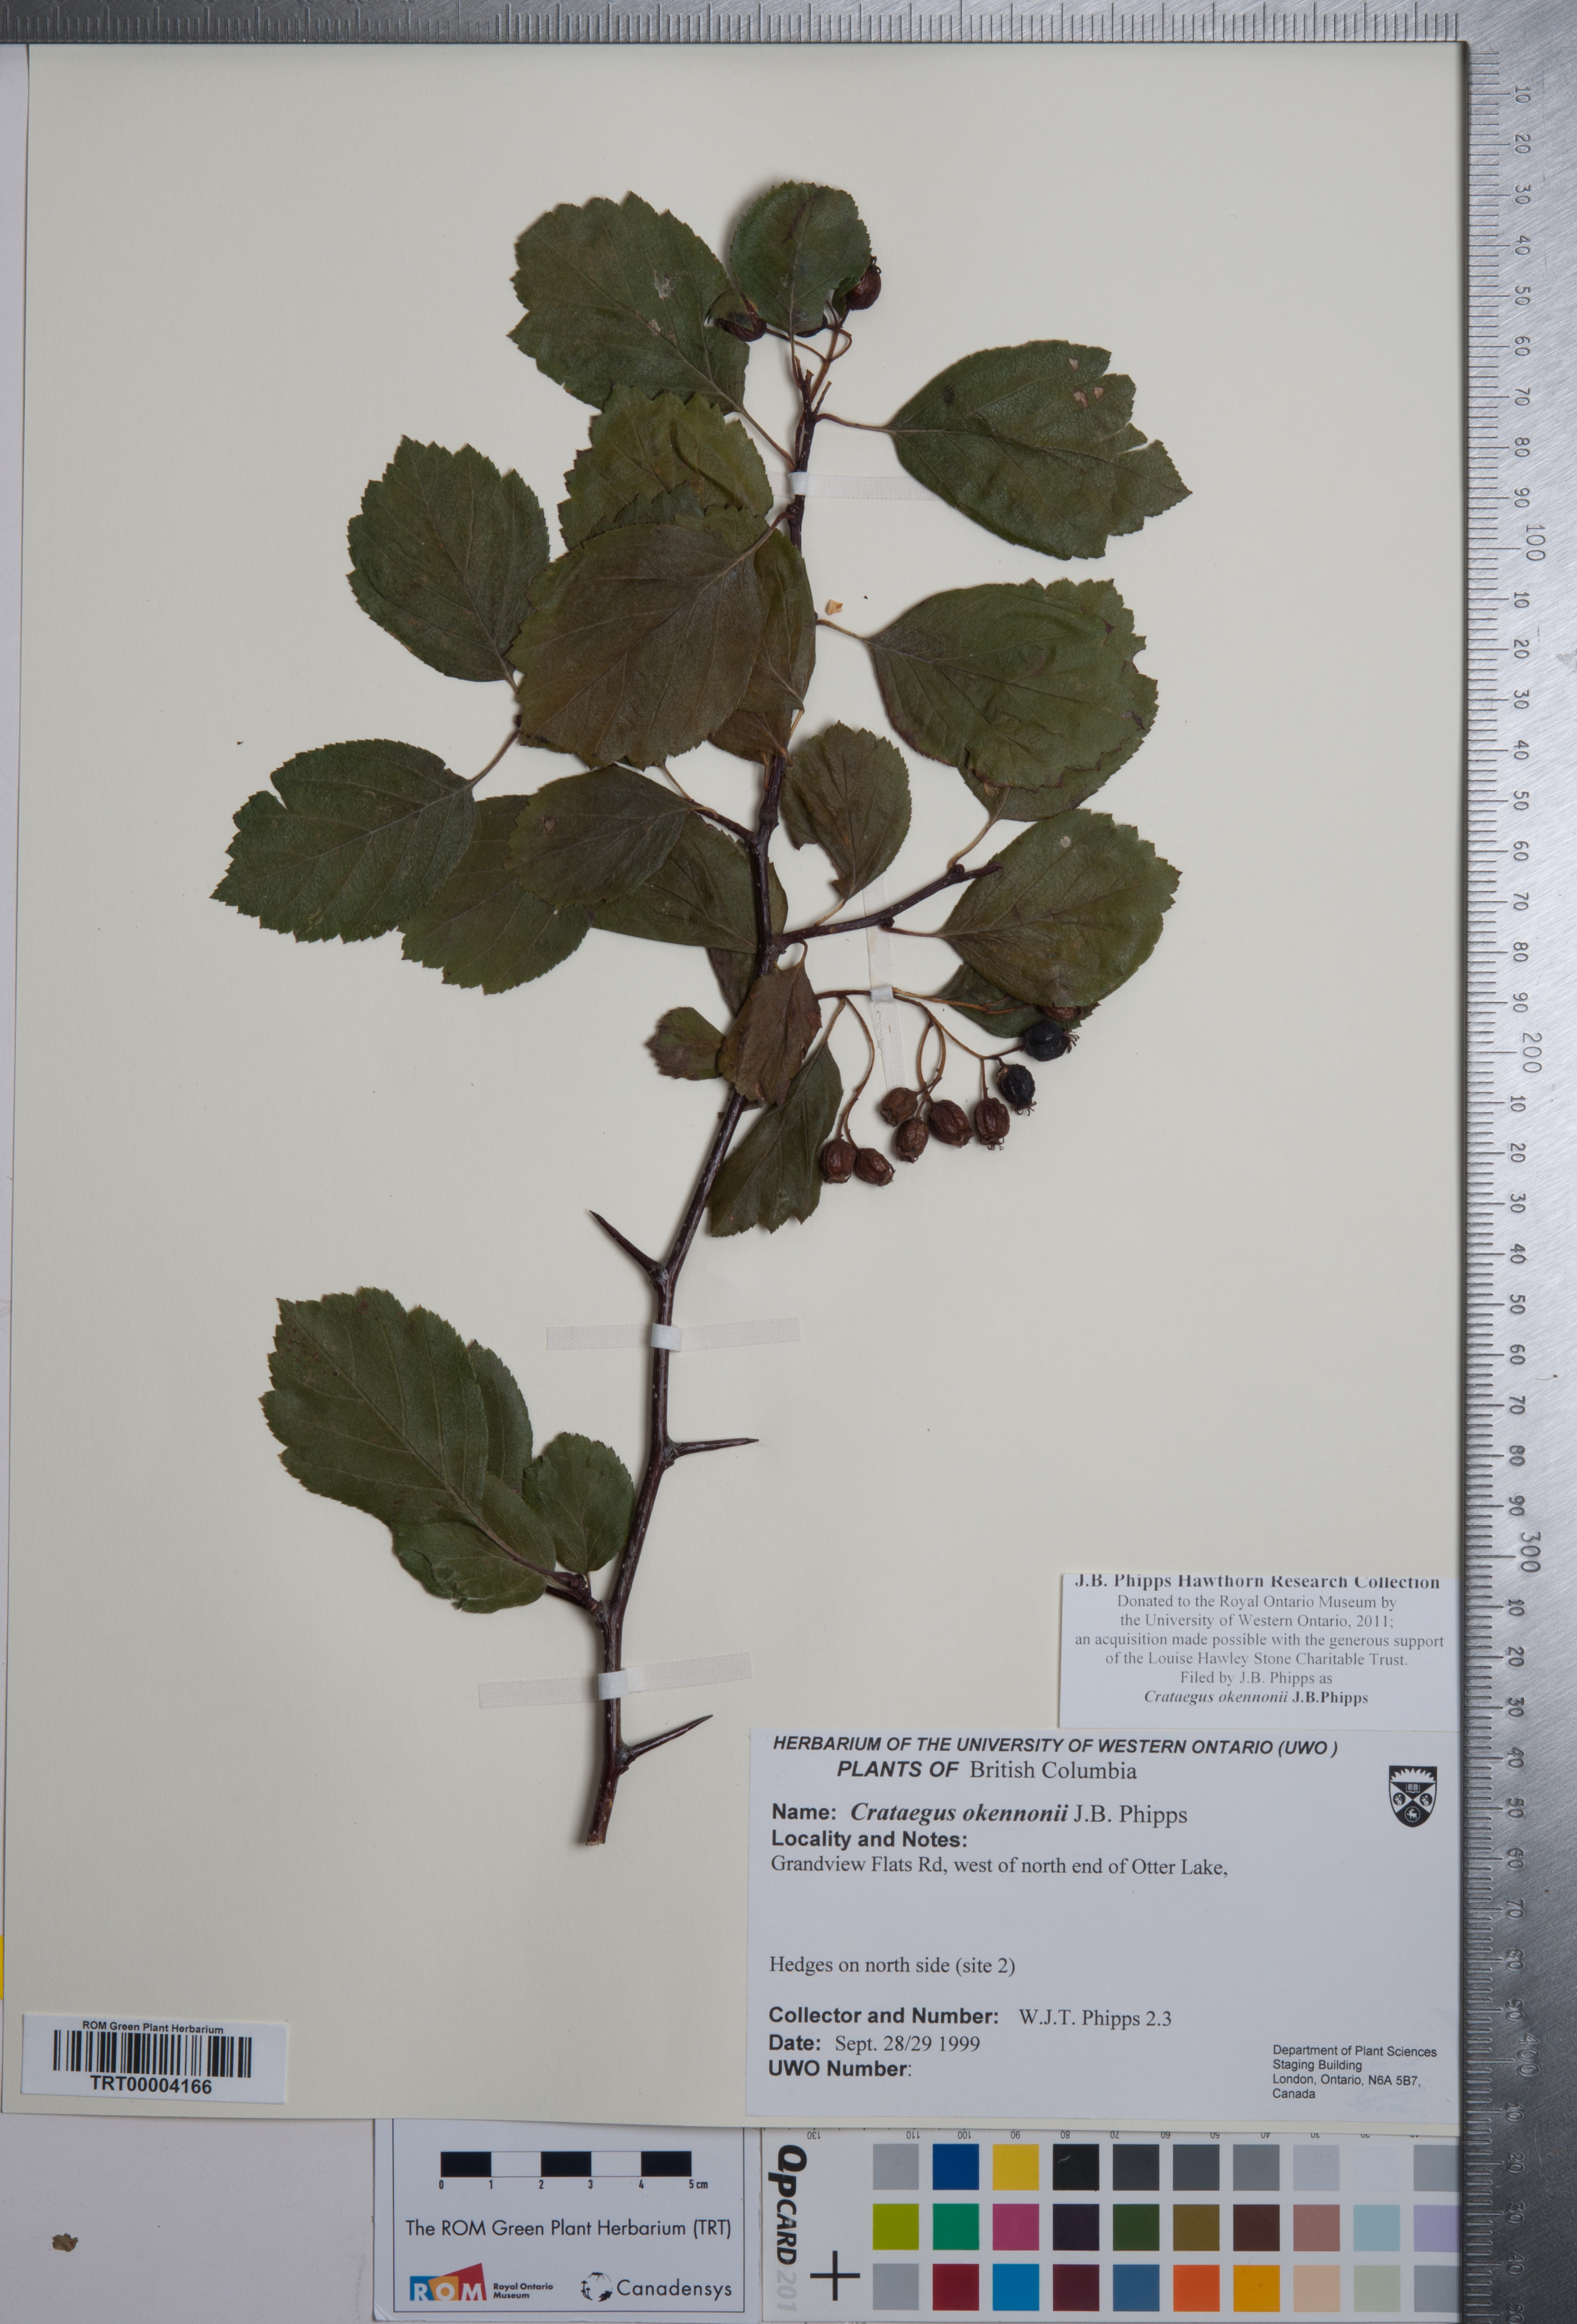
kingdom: Plantae
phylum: Tracheophyta
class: Magnoliopsida
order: Rosales
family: Rosaceae
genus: Crataegus
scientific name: Crataegus okennonii
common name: O'kennon's hawthorn
